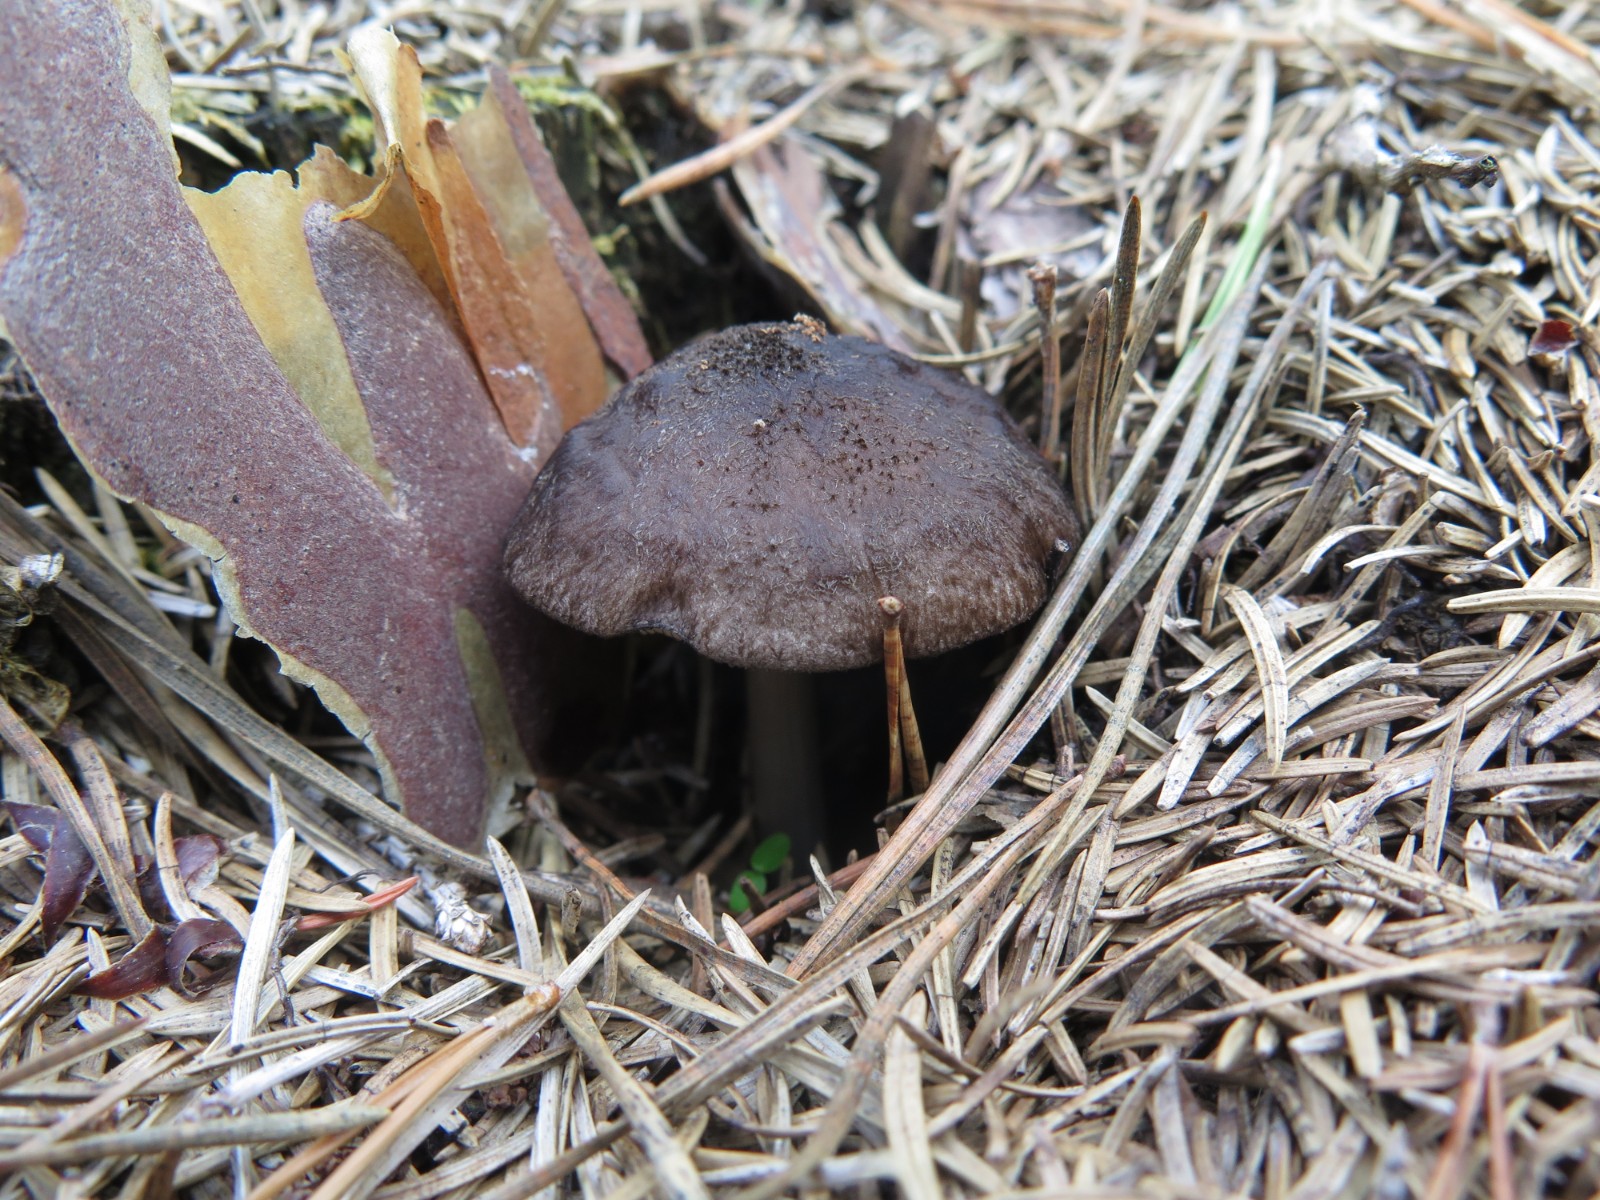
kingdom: Fungi
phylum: Basidiomycota
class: Agaricomycetes
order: Agaricales
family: Pluteaceae
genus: Pluteus
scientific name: Pluteus atromarginatus
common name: sortrandet skærmhat
